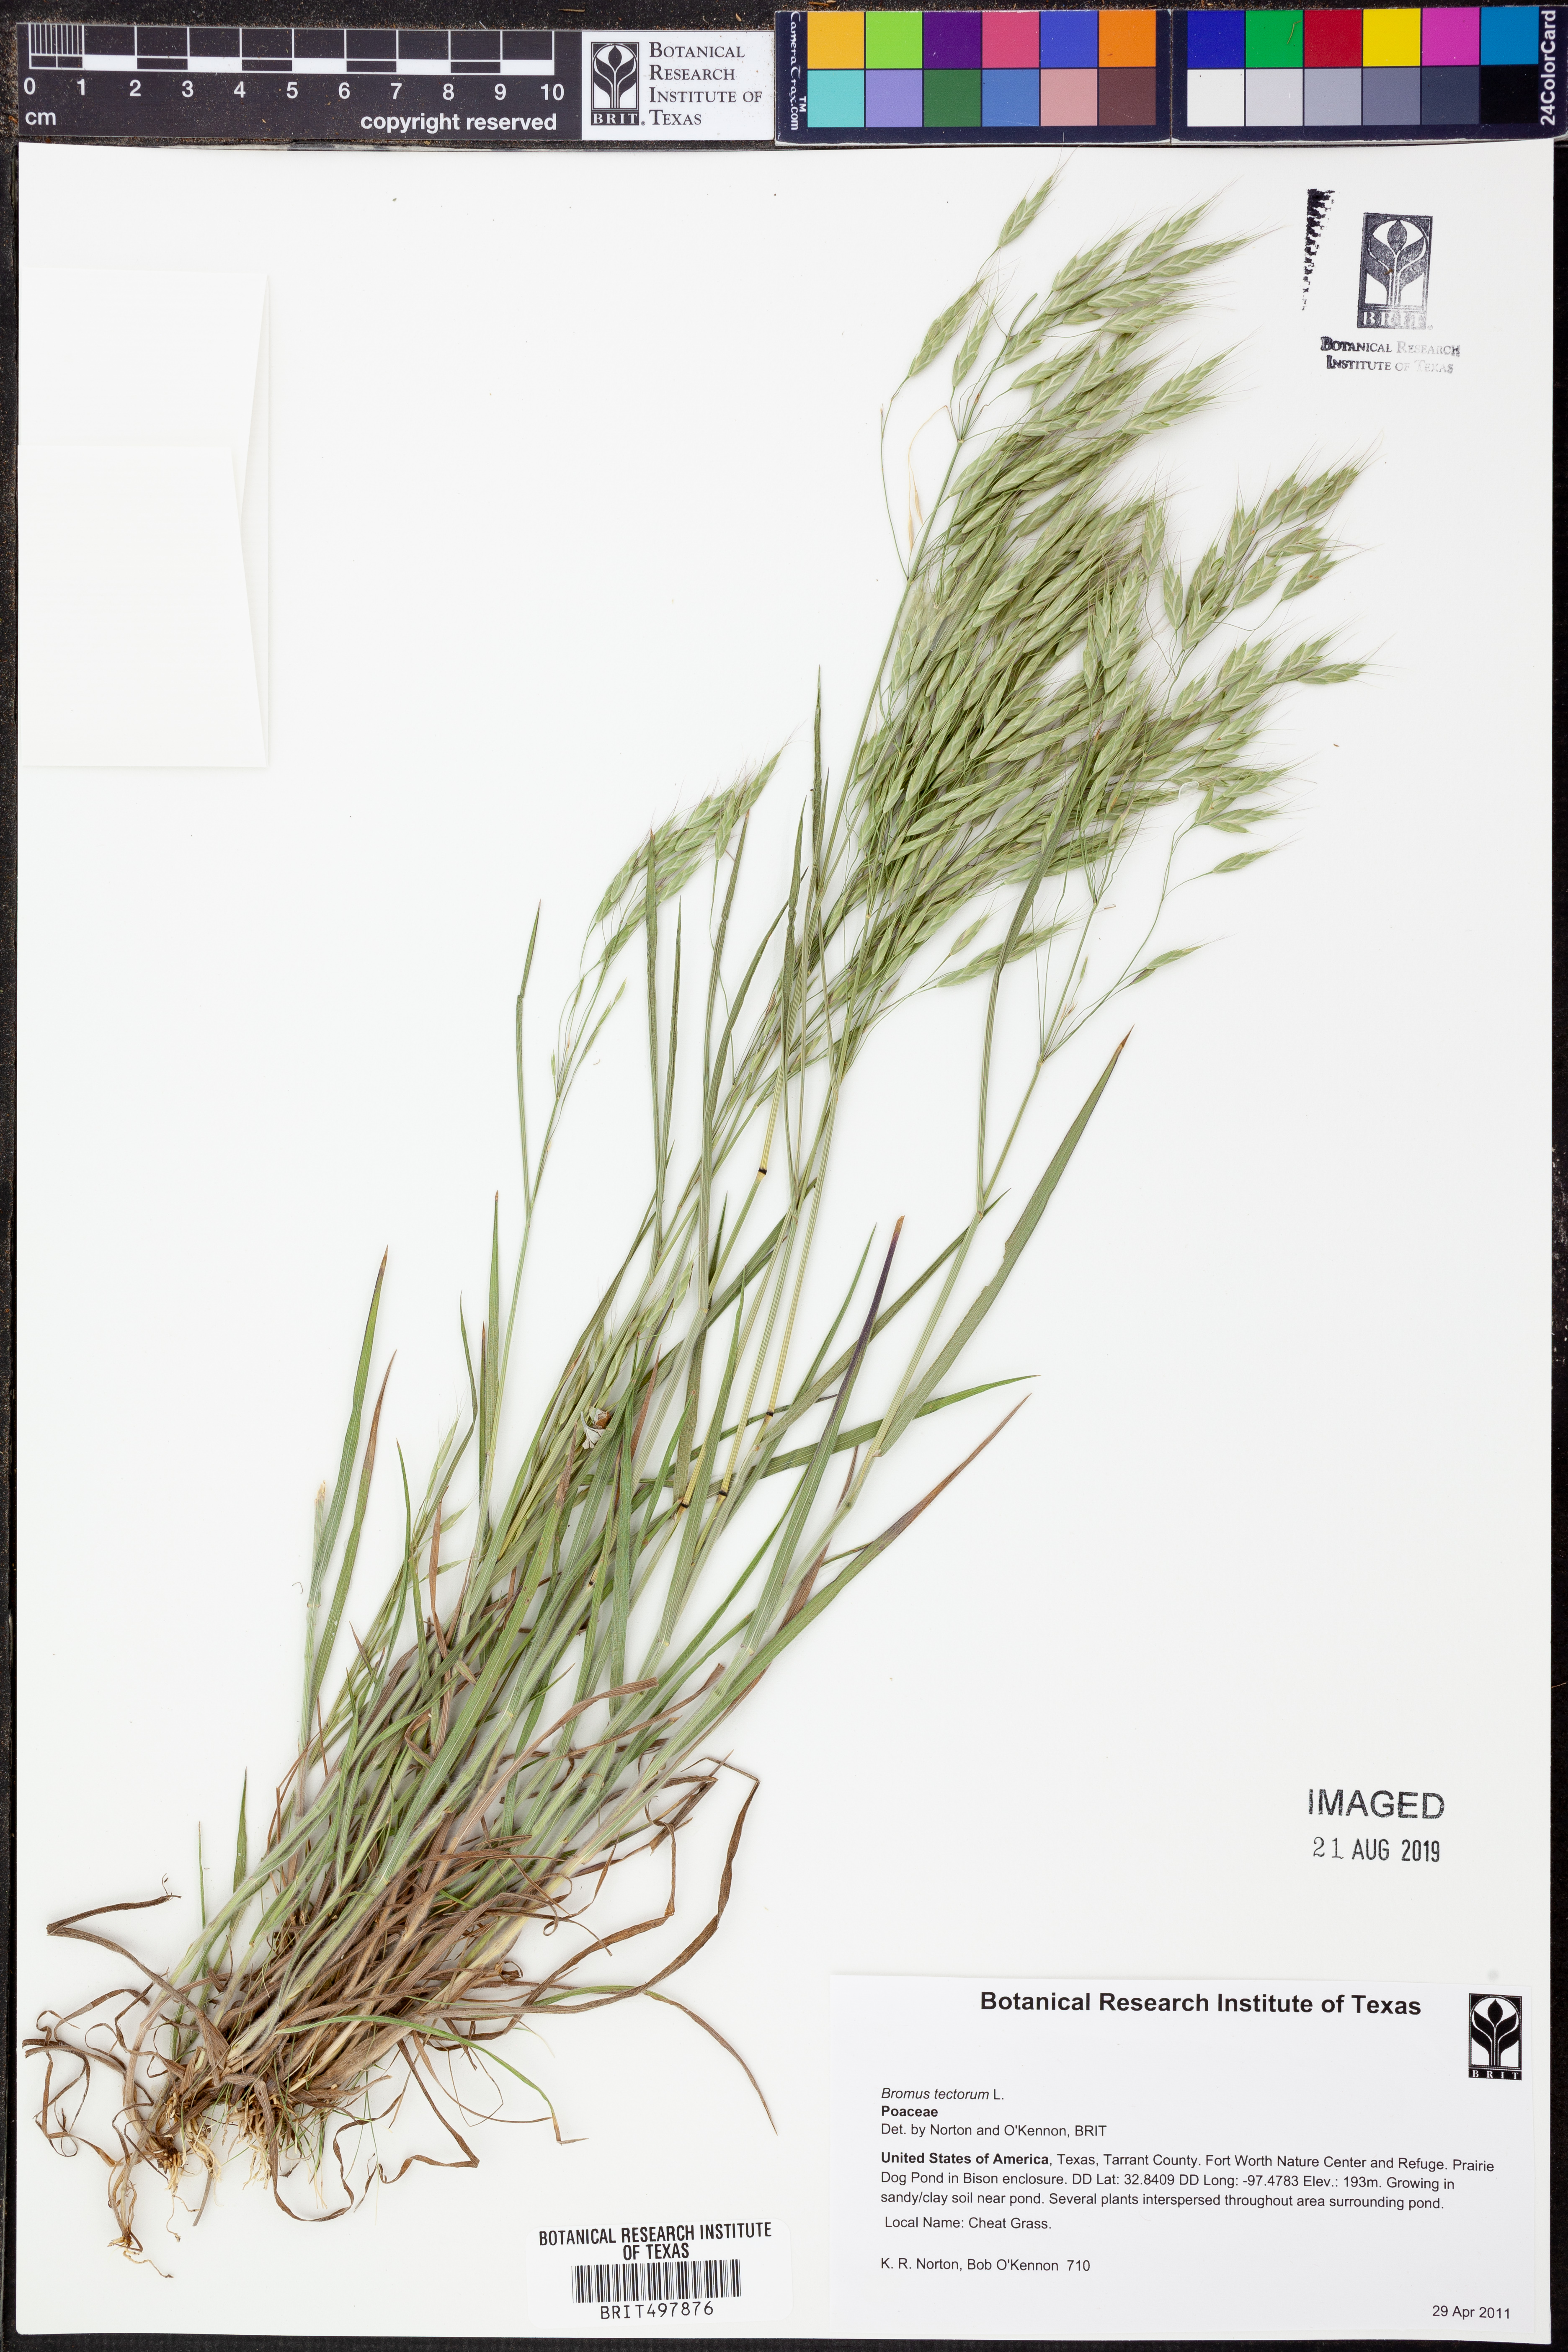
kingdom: Plantae
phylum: Tracheophyta
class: Liliopsida
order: Poales
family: Poaceae
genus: Bromus
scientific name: Bromus tectorum
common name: Cheatgrass
